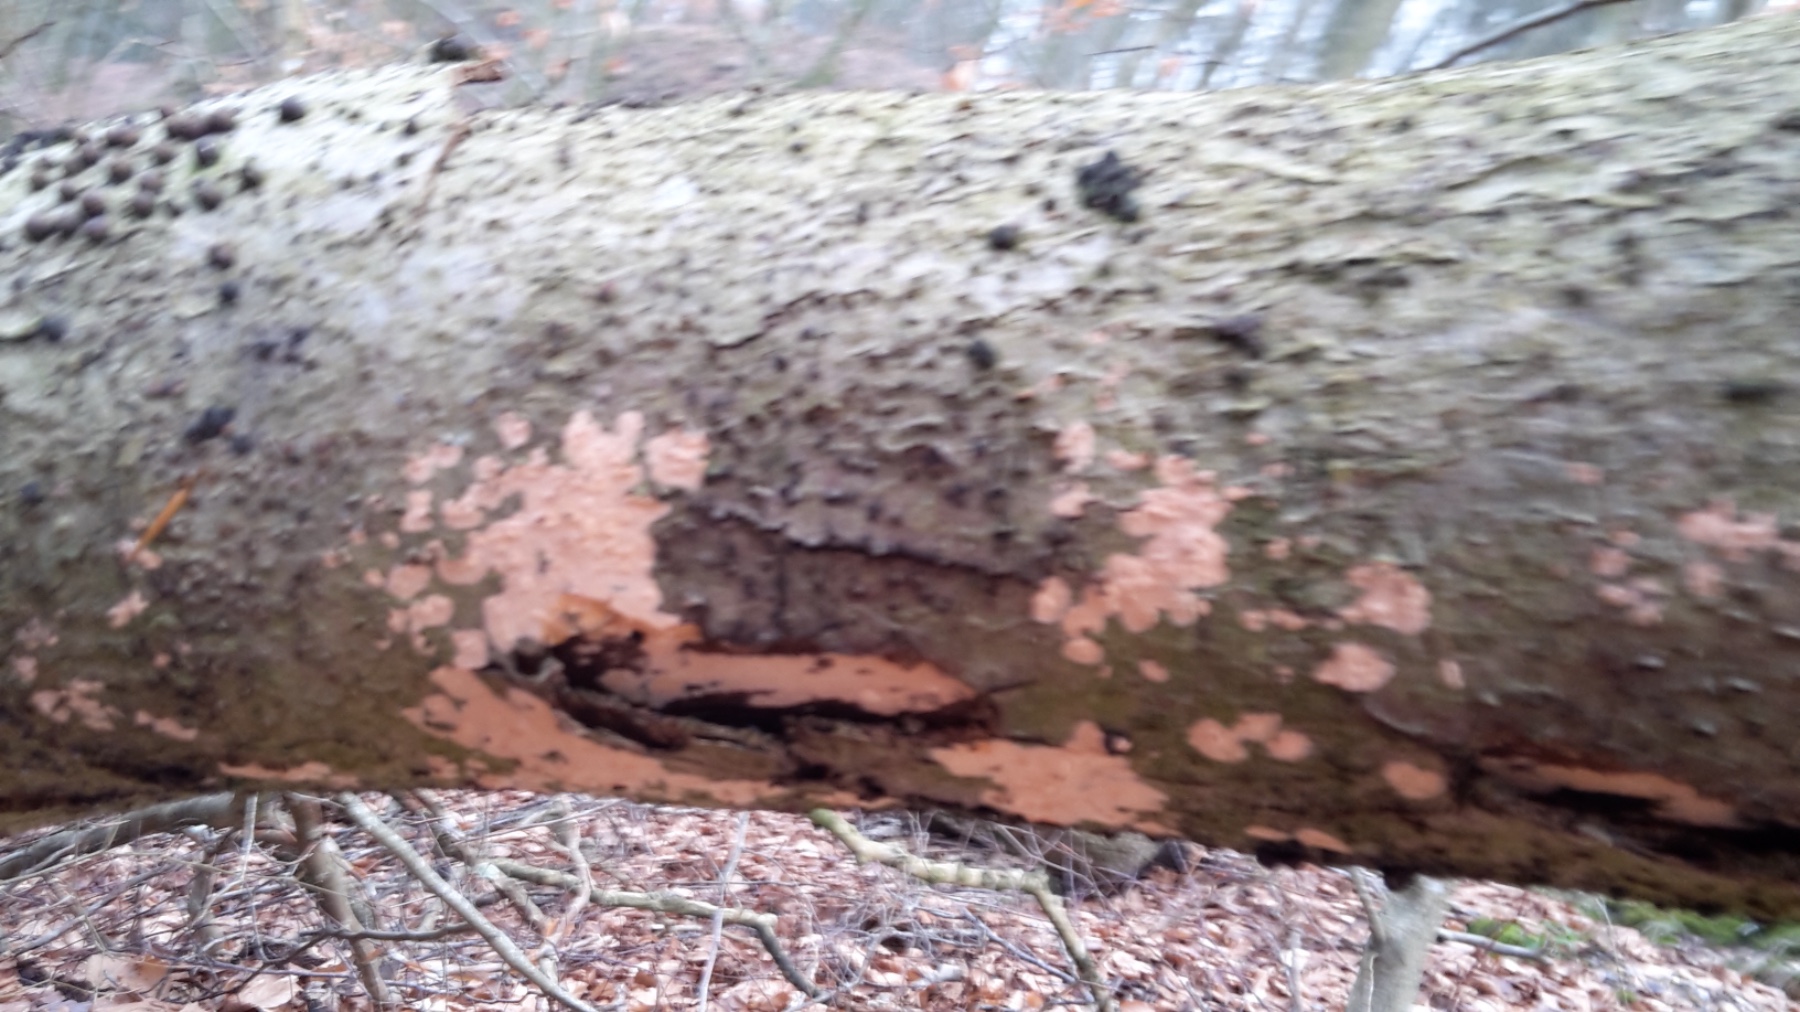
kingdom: Fungi
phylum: Basidiomycota
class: Agaricomycetes
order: Russulales
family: Peniophoraceae
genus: Peniophora
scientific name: Peniophora incarnata
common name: laksefarvet voksskind
